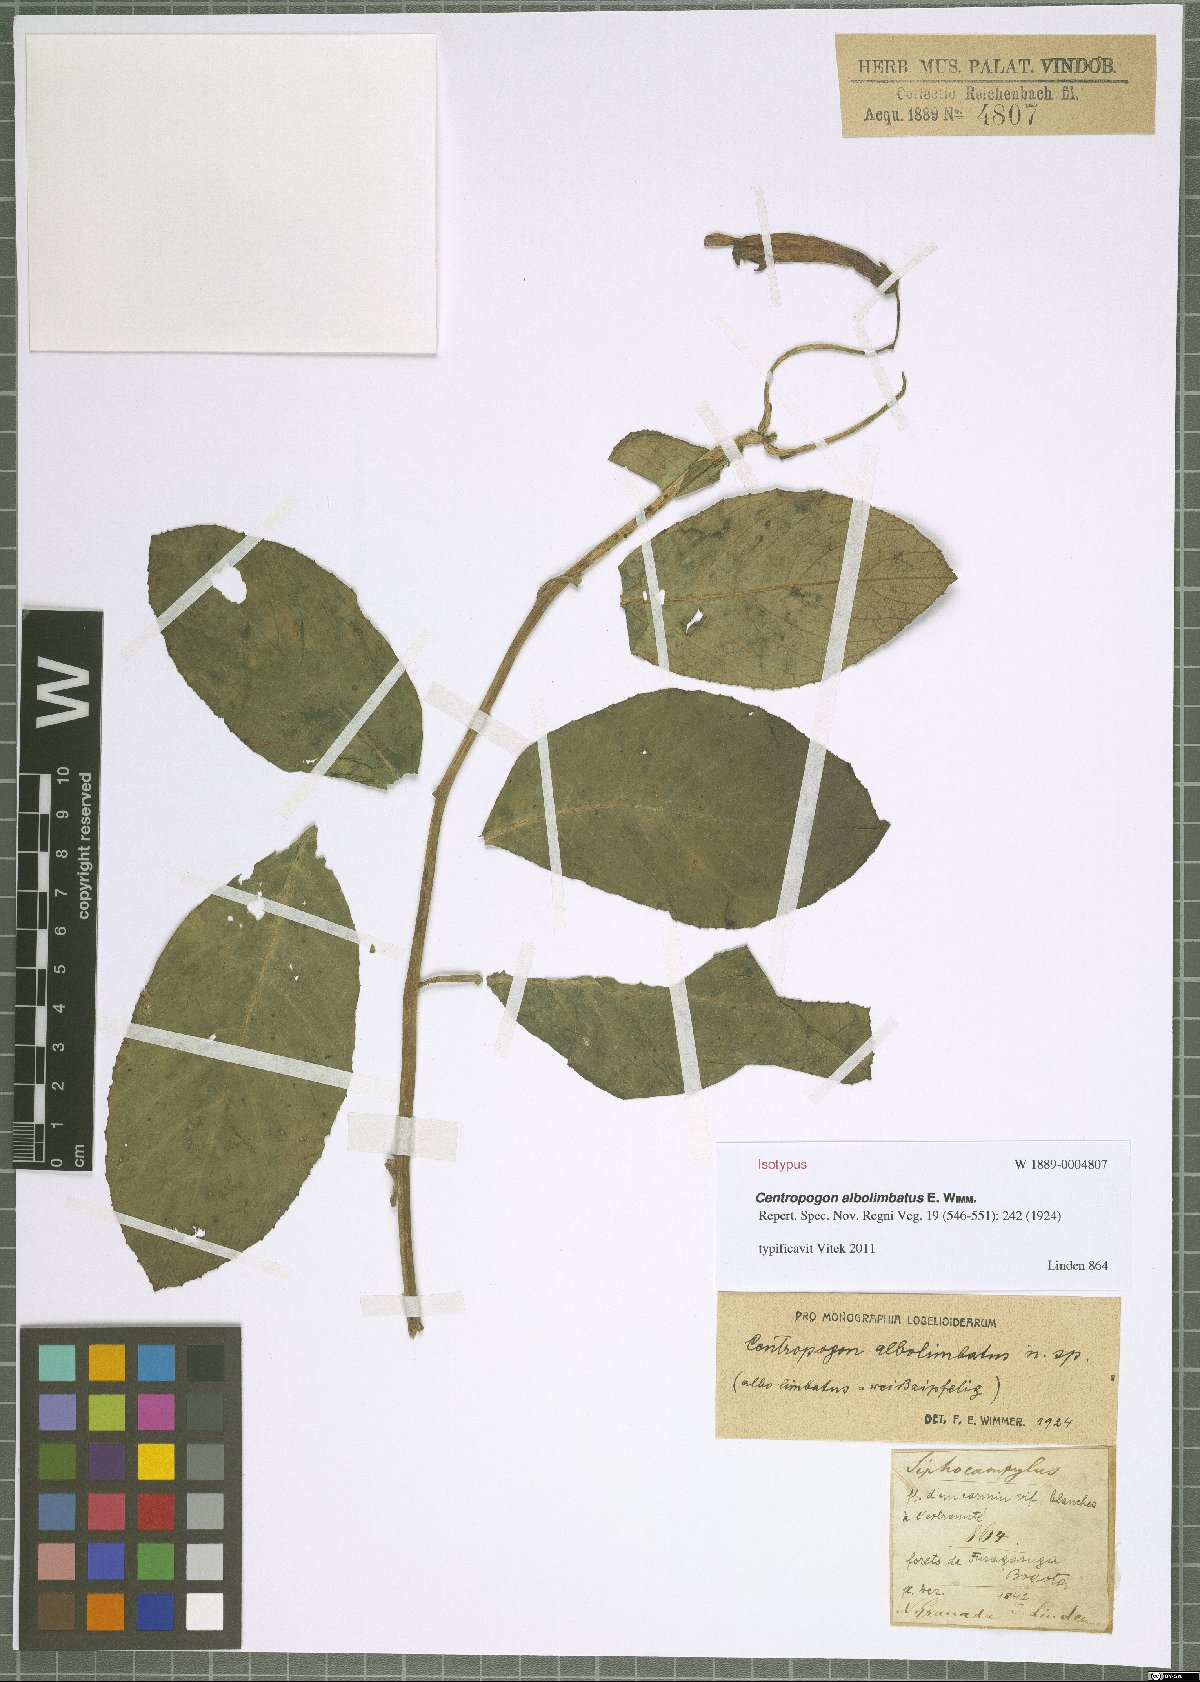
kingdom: Plantae
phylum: Tracheophyta
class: Magnoliopsida
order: Asterales
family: Campanulaceae
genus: Centropogon
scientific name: Centropogon albolimbatus
